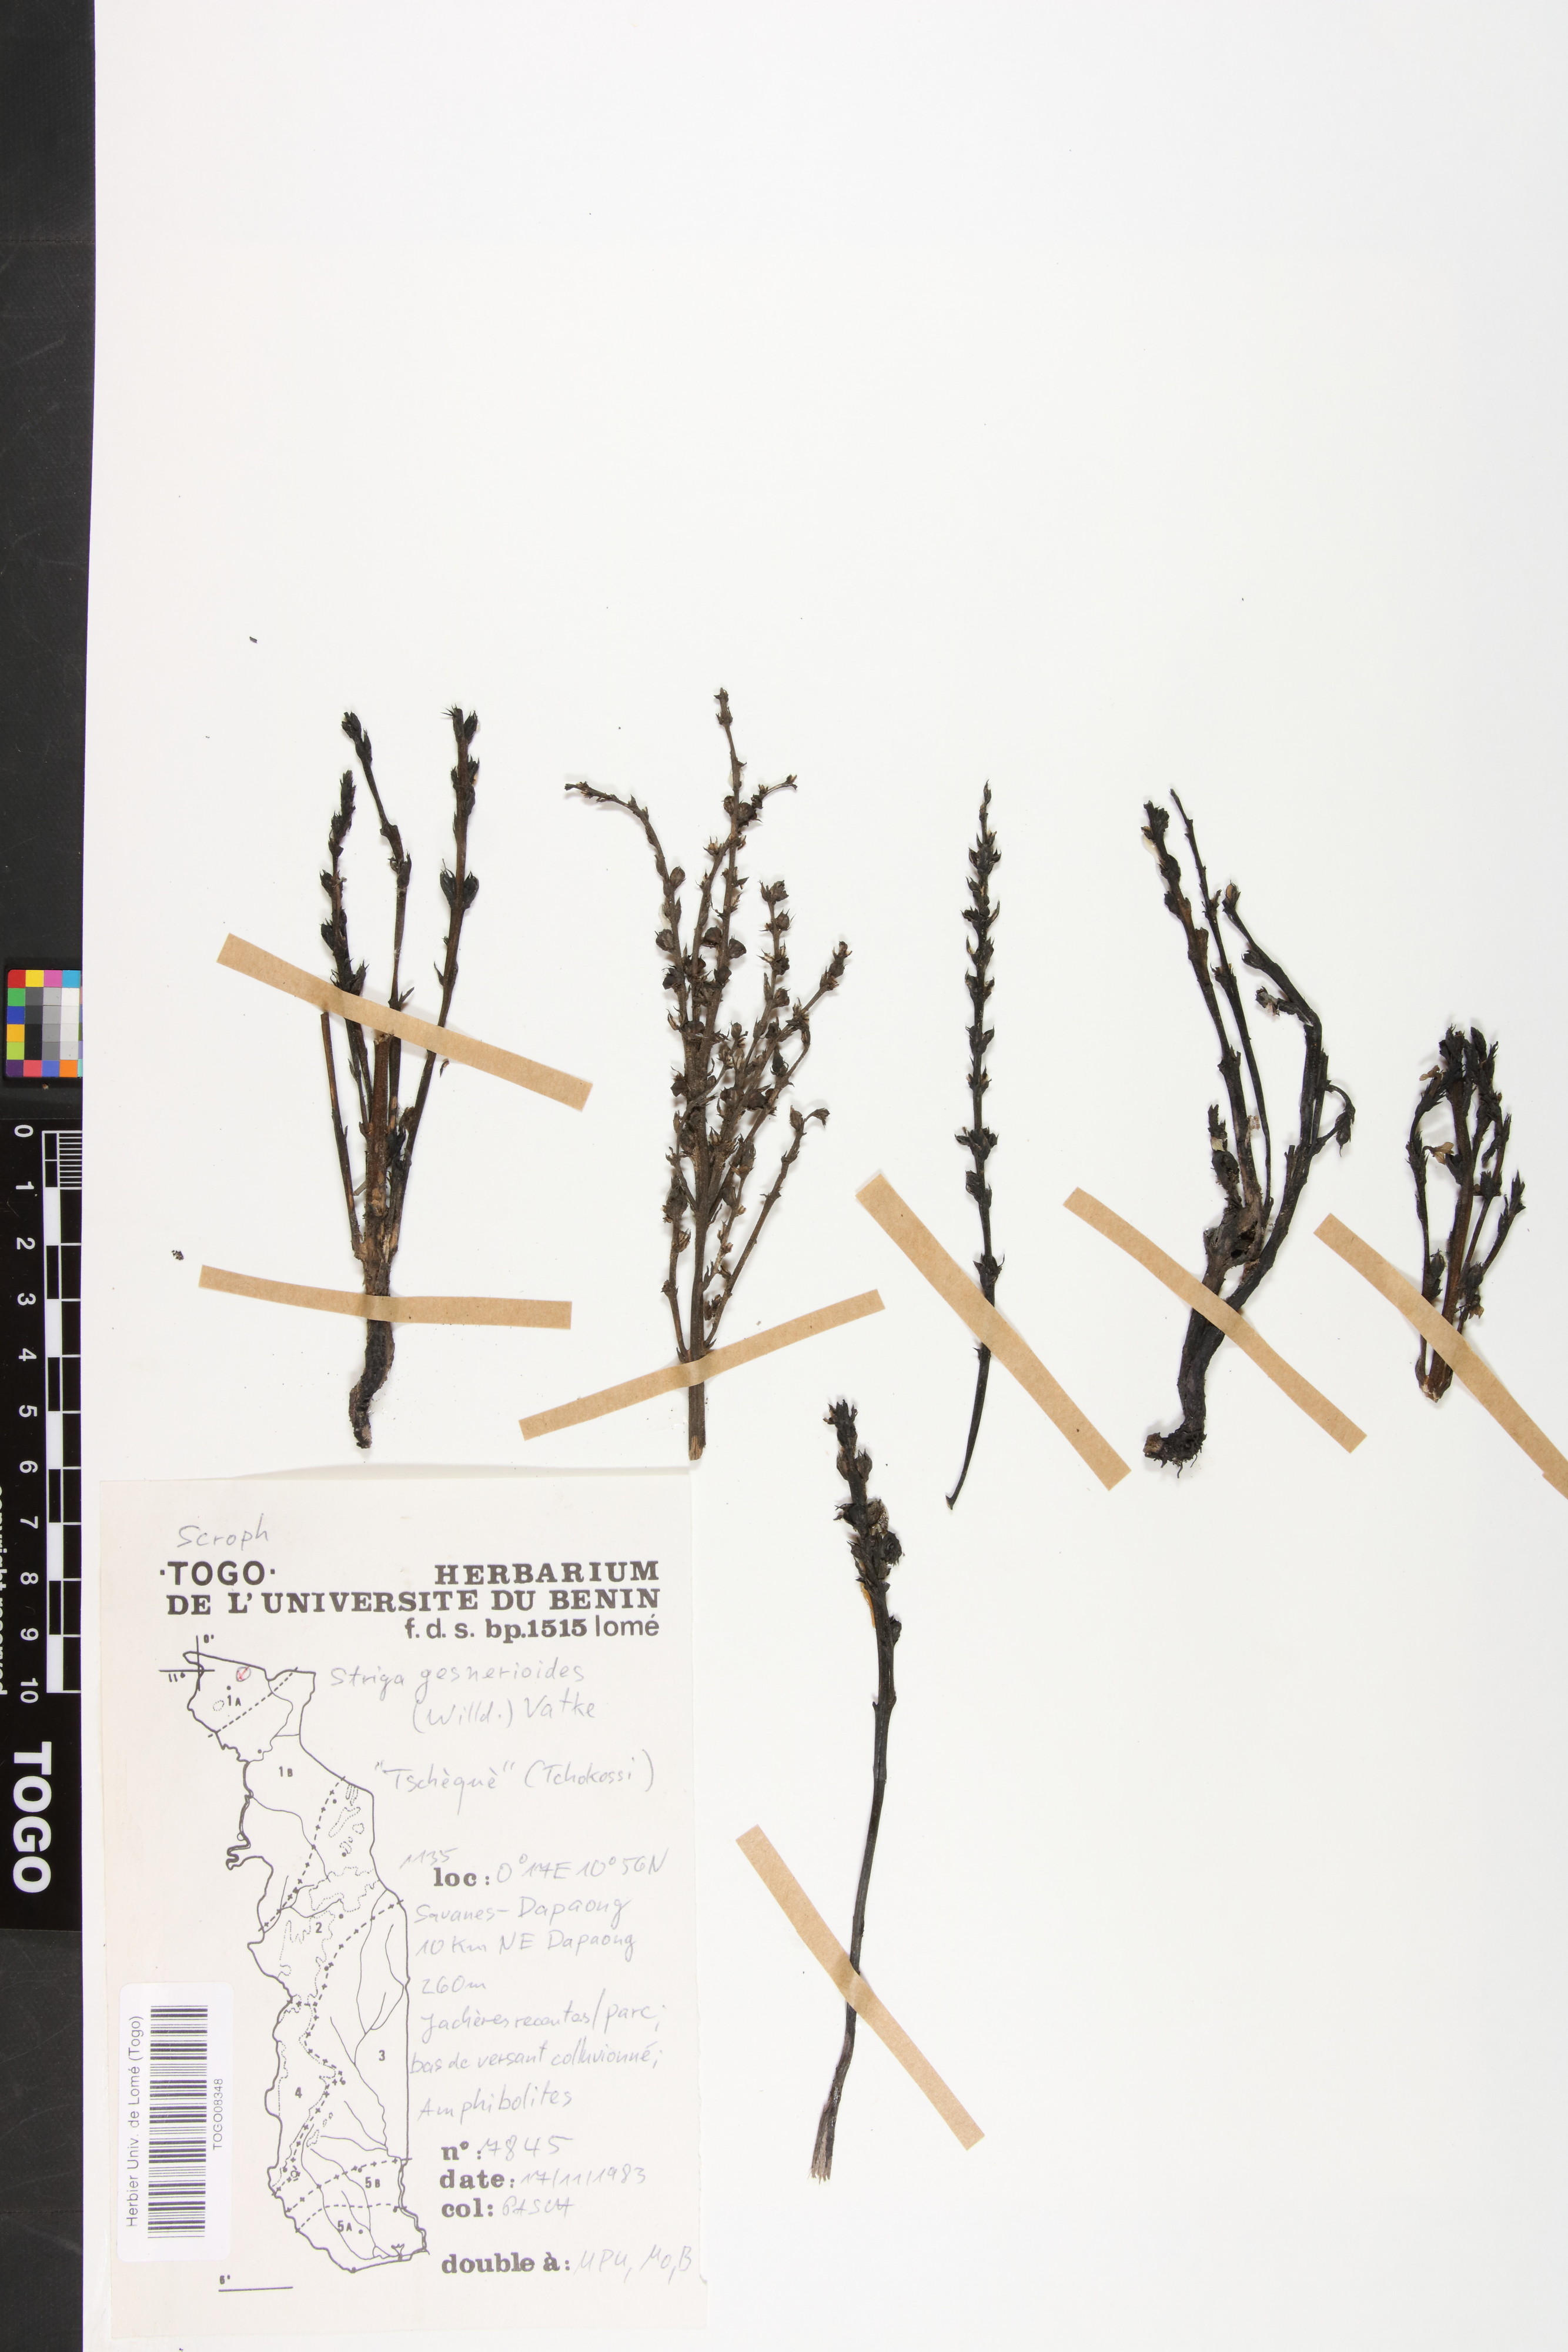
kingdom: Plantae
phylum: Tracheophyta
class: Magnoliopsida
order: Lamiales
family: Orobanchaceae
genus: Striga
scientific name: Striga gesnerioides
